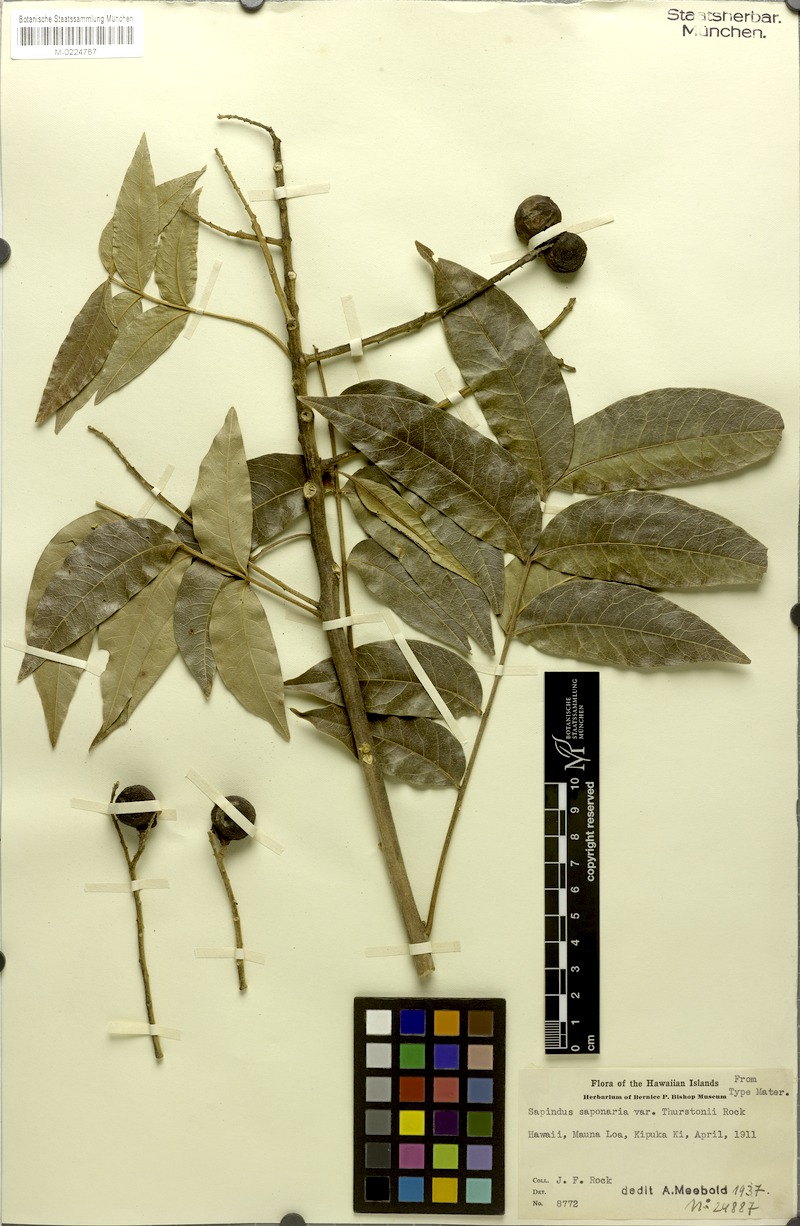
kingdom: Plantae
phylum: Tracheophyta
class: Magnoliopsida
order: Sapindales
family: Sapindaceae
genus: Sapindus
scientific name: Sapindus saponaria
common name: Wingleaf soapberry
